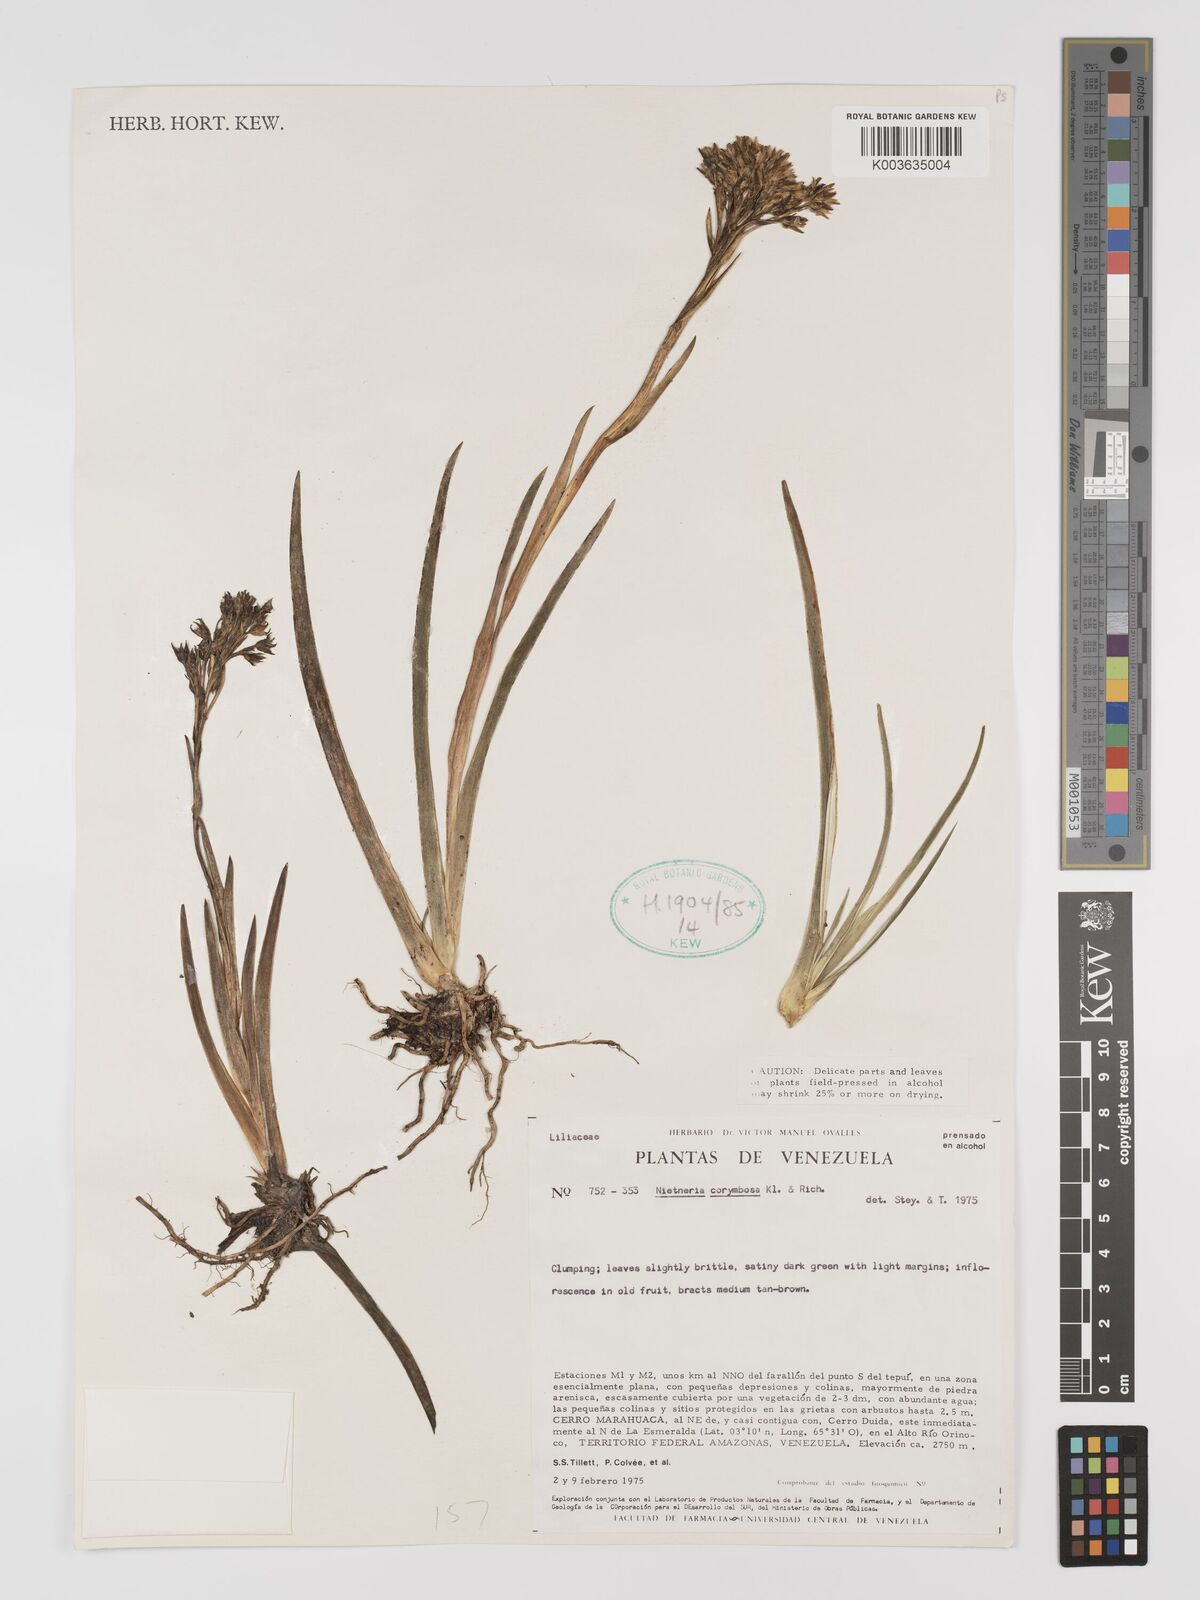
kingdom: Plantae
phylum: Tracheophyta
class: Liliopsida
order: Dioscoreales
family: Nartheciaceae
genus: Nietneria
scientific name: Nietneria corymbosa
